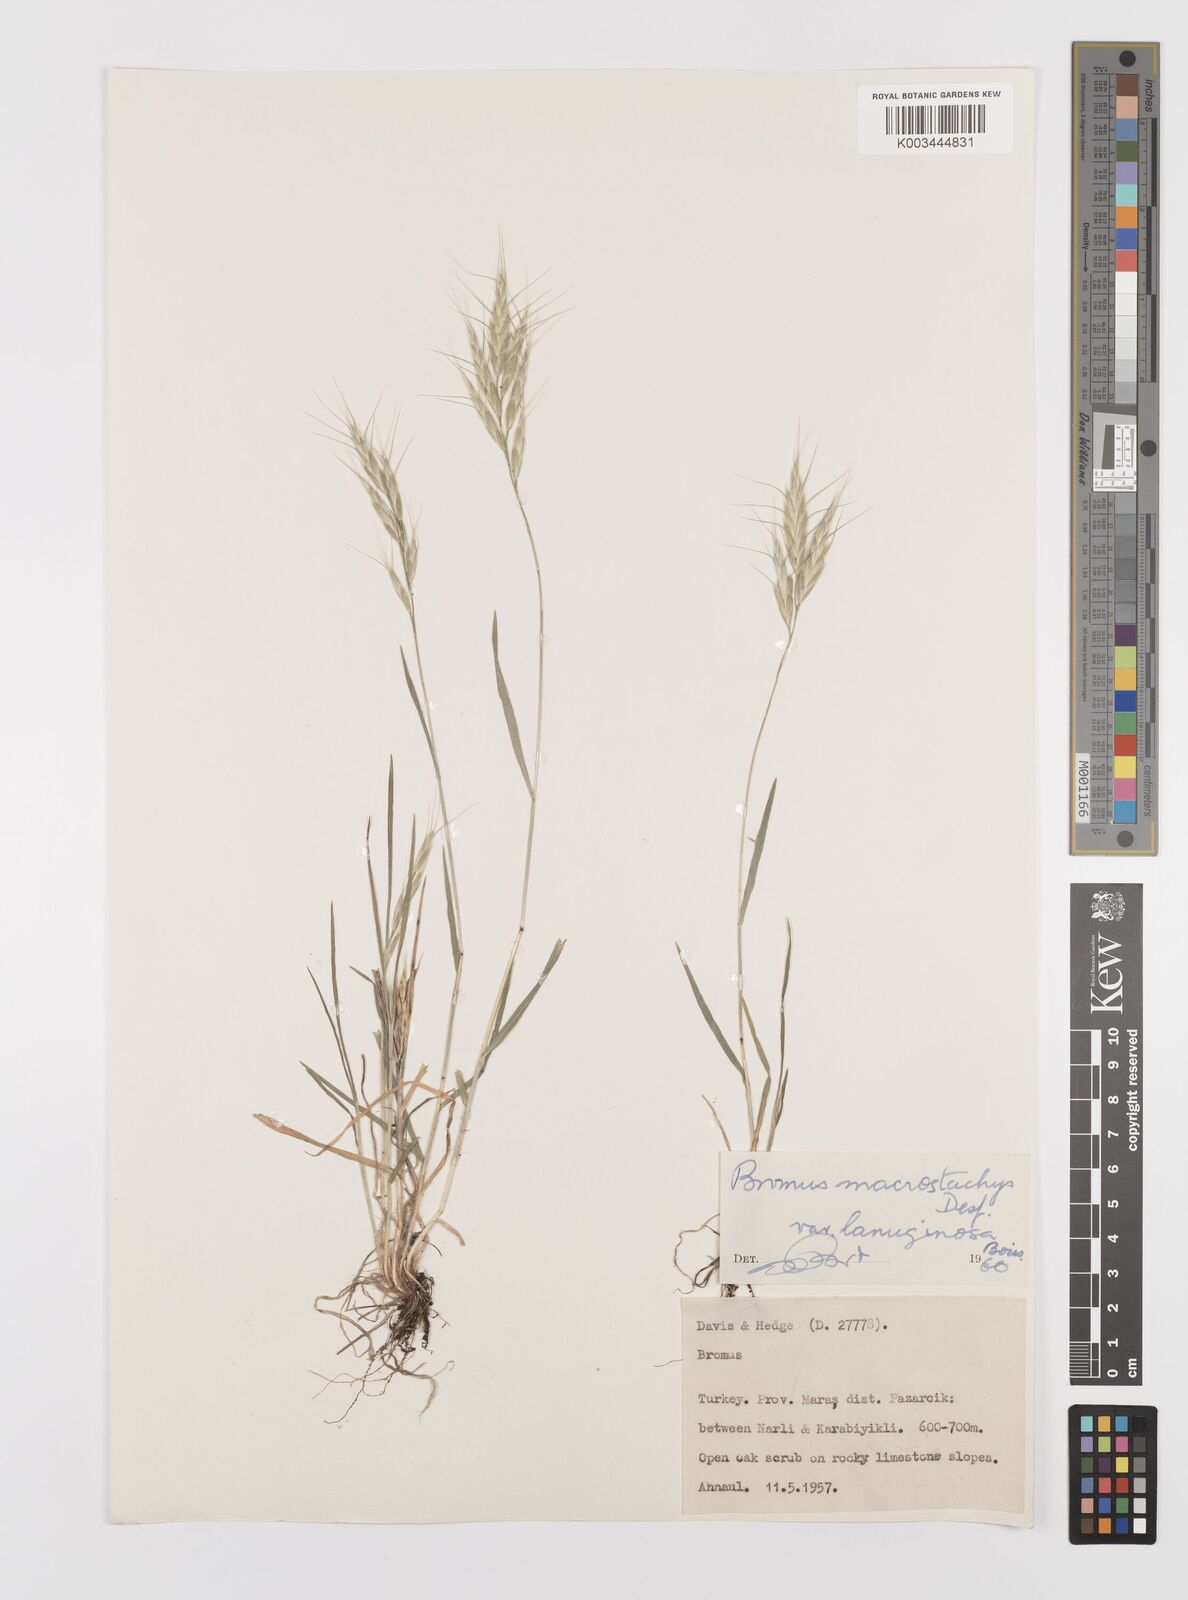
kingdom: Plantae
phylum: Tracheophyta
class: Liliopsida
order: Poales
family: Poaceae
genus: Bromus
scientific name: Bromus lanceolatus
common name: Mediterranean brome
